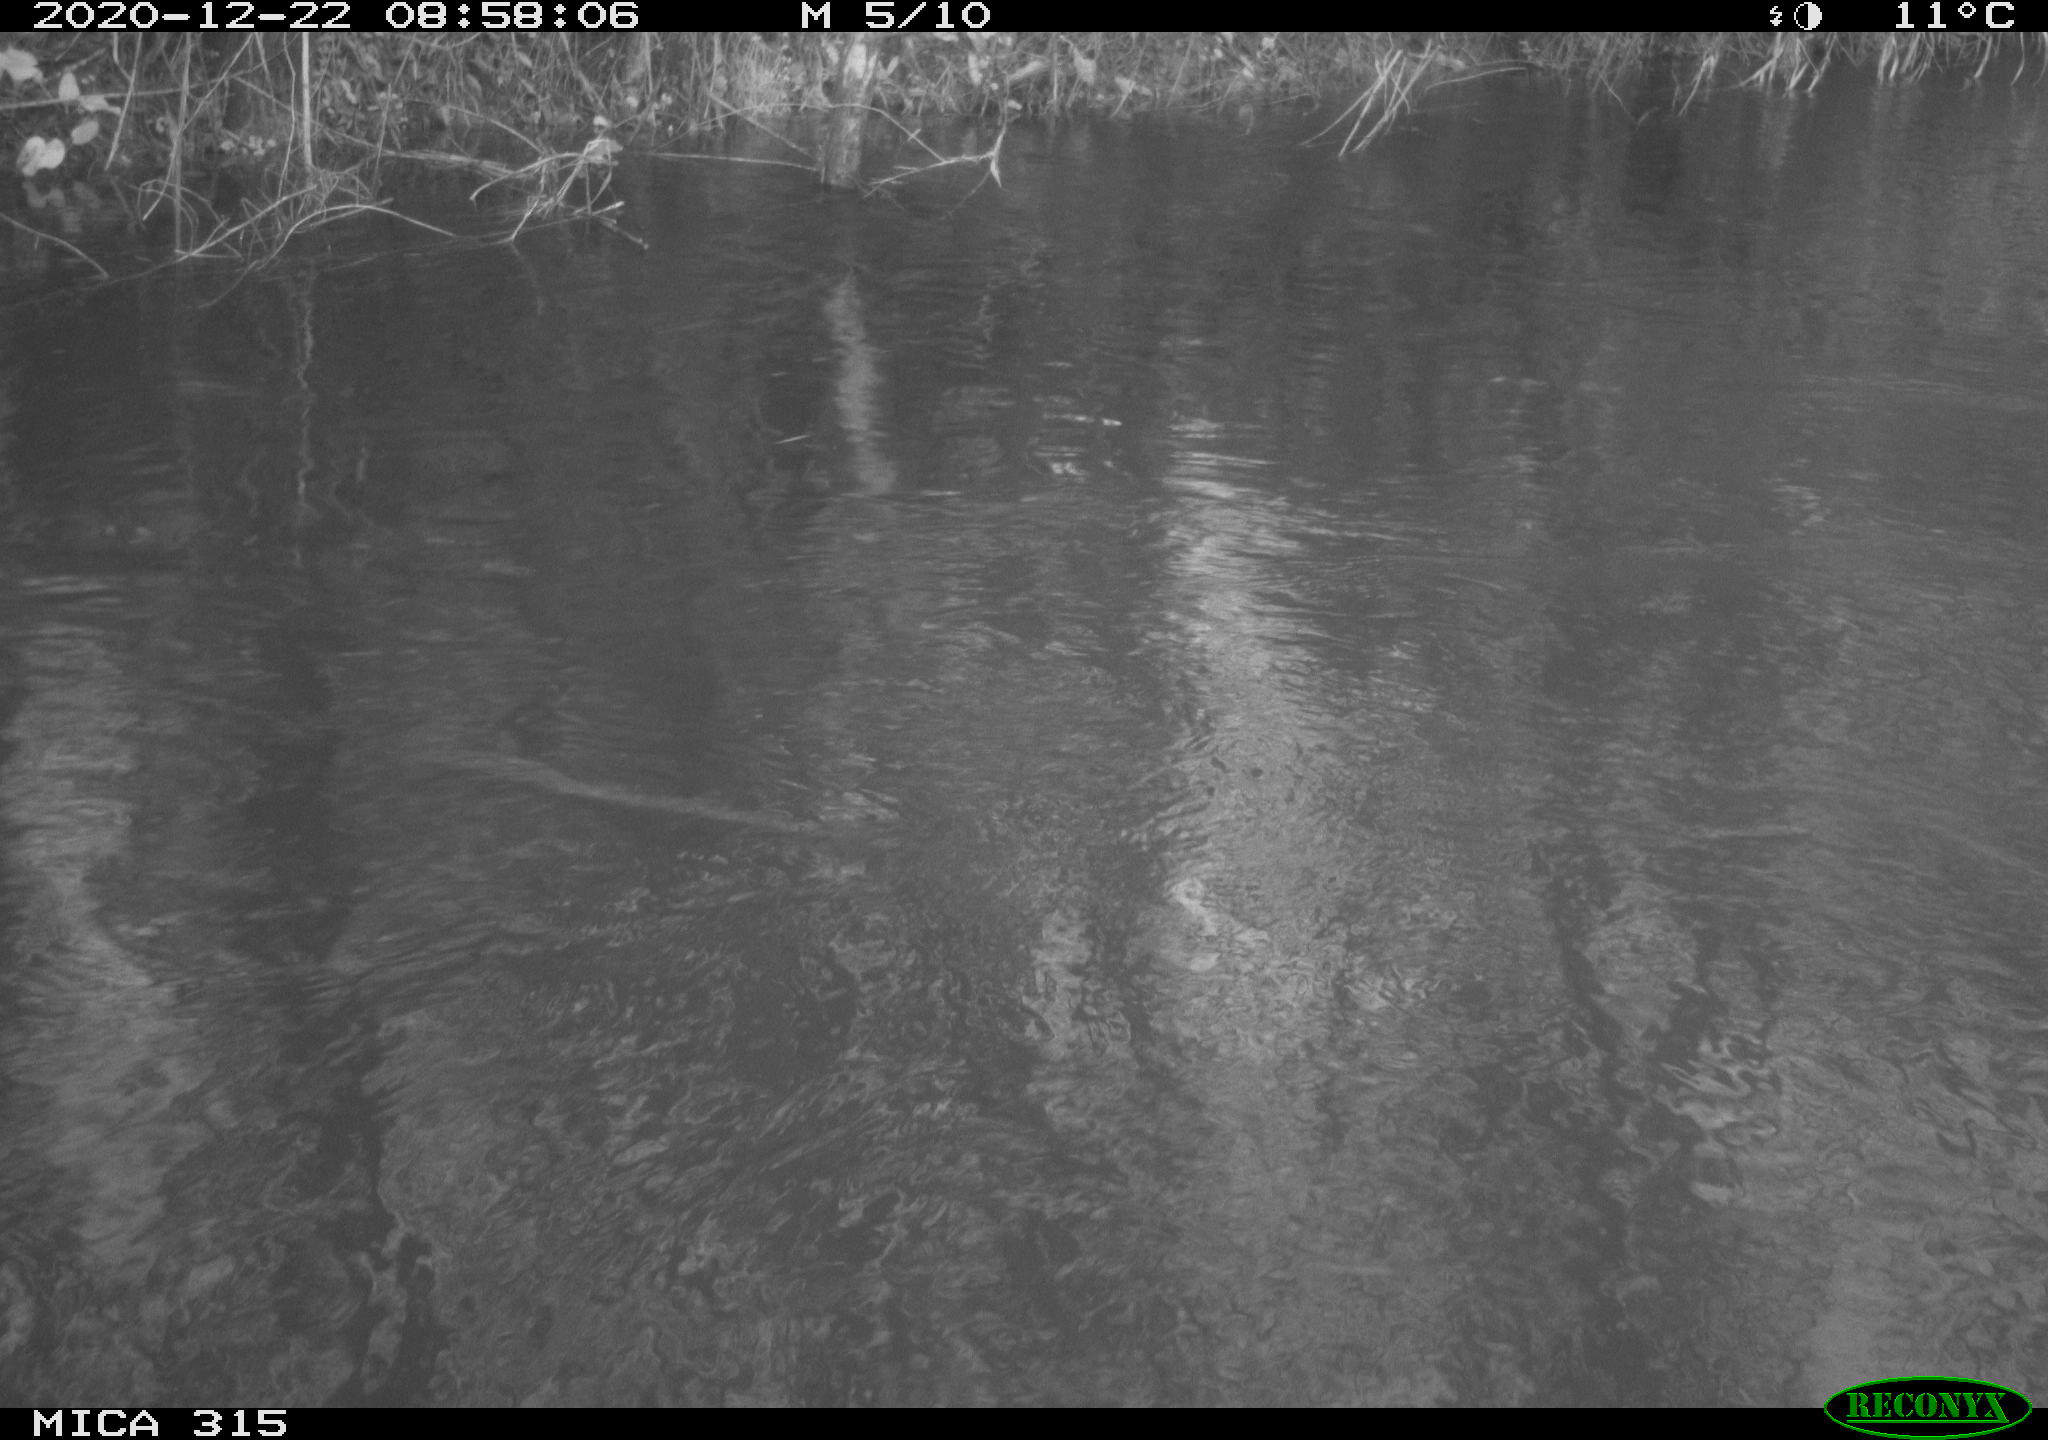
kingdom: Animalia
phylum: Chordata
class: Aves
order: Podicipediformes
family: Podicipedidae
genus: Podiceps
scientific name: Podiceps cristatus
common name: Great crested grebe
